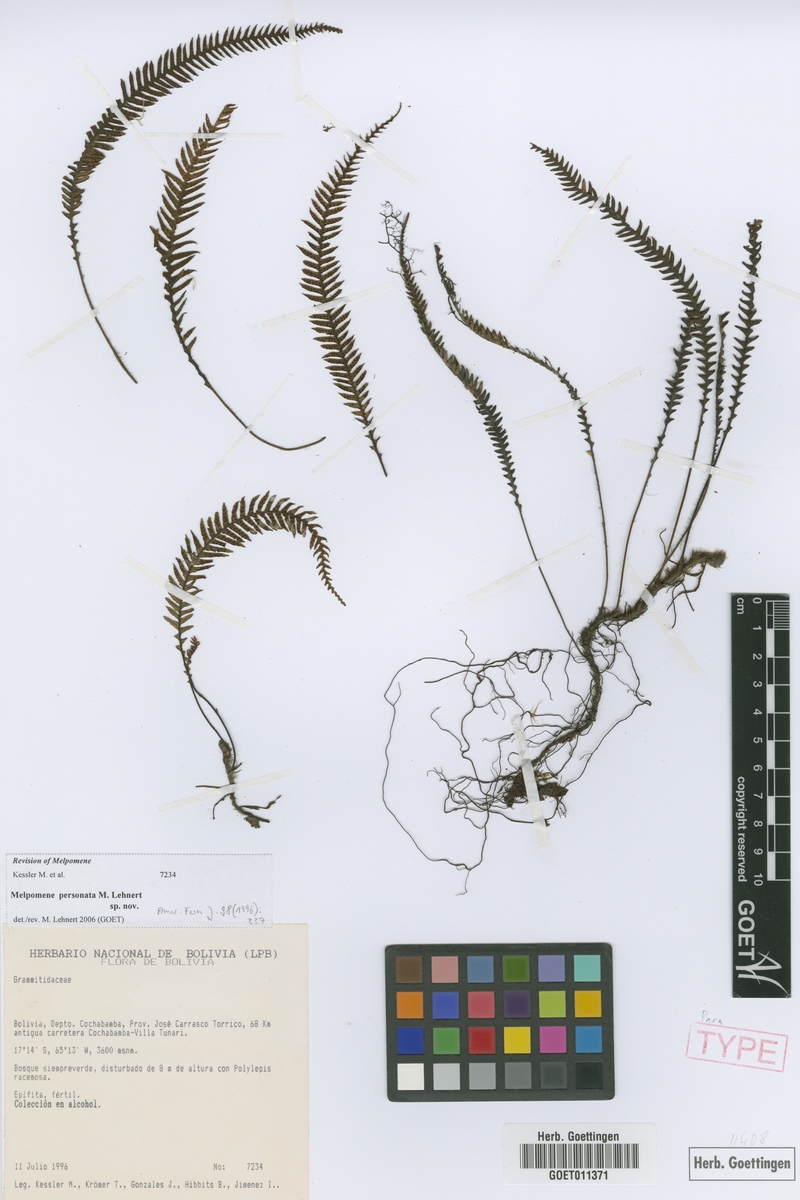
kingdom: Plantae
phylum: Tracheophyta
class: Polypodiopsida
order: Polypodiales
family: Polypodiaceae
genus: Melpomene
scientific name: Melpomene personata
